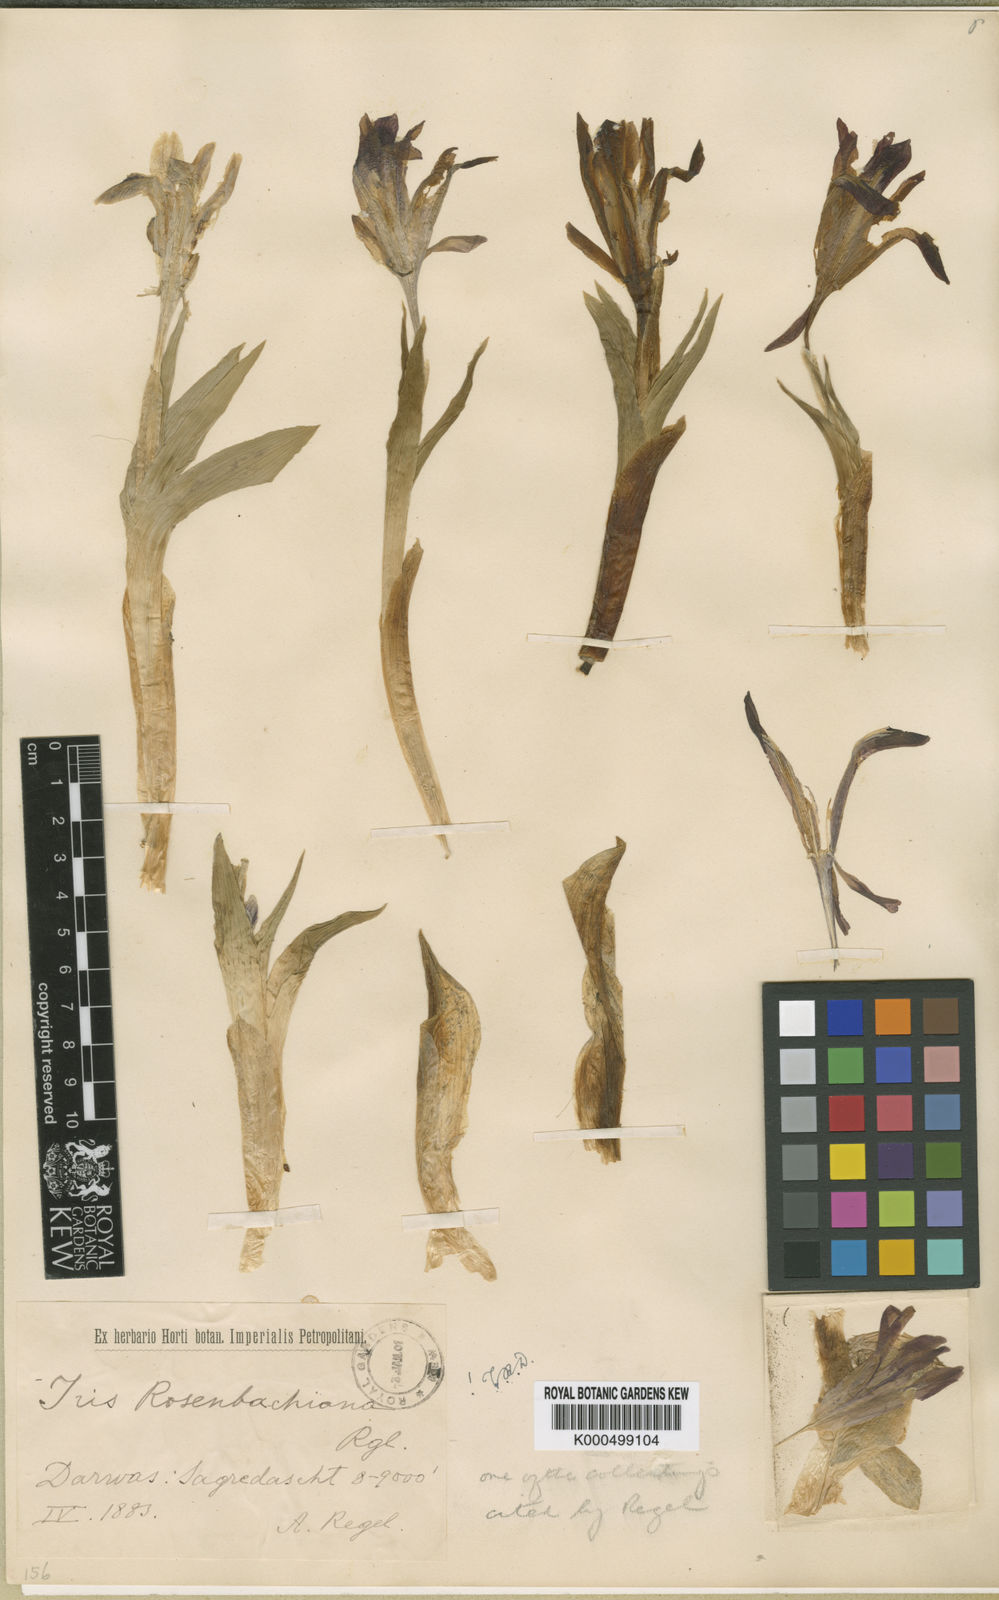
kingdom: Plantae
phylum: Tracheophyta
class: Liliopsida
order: Asparagales
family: Iridaceae
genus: Iris
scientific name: Iris rosenbachiana
